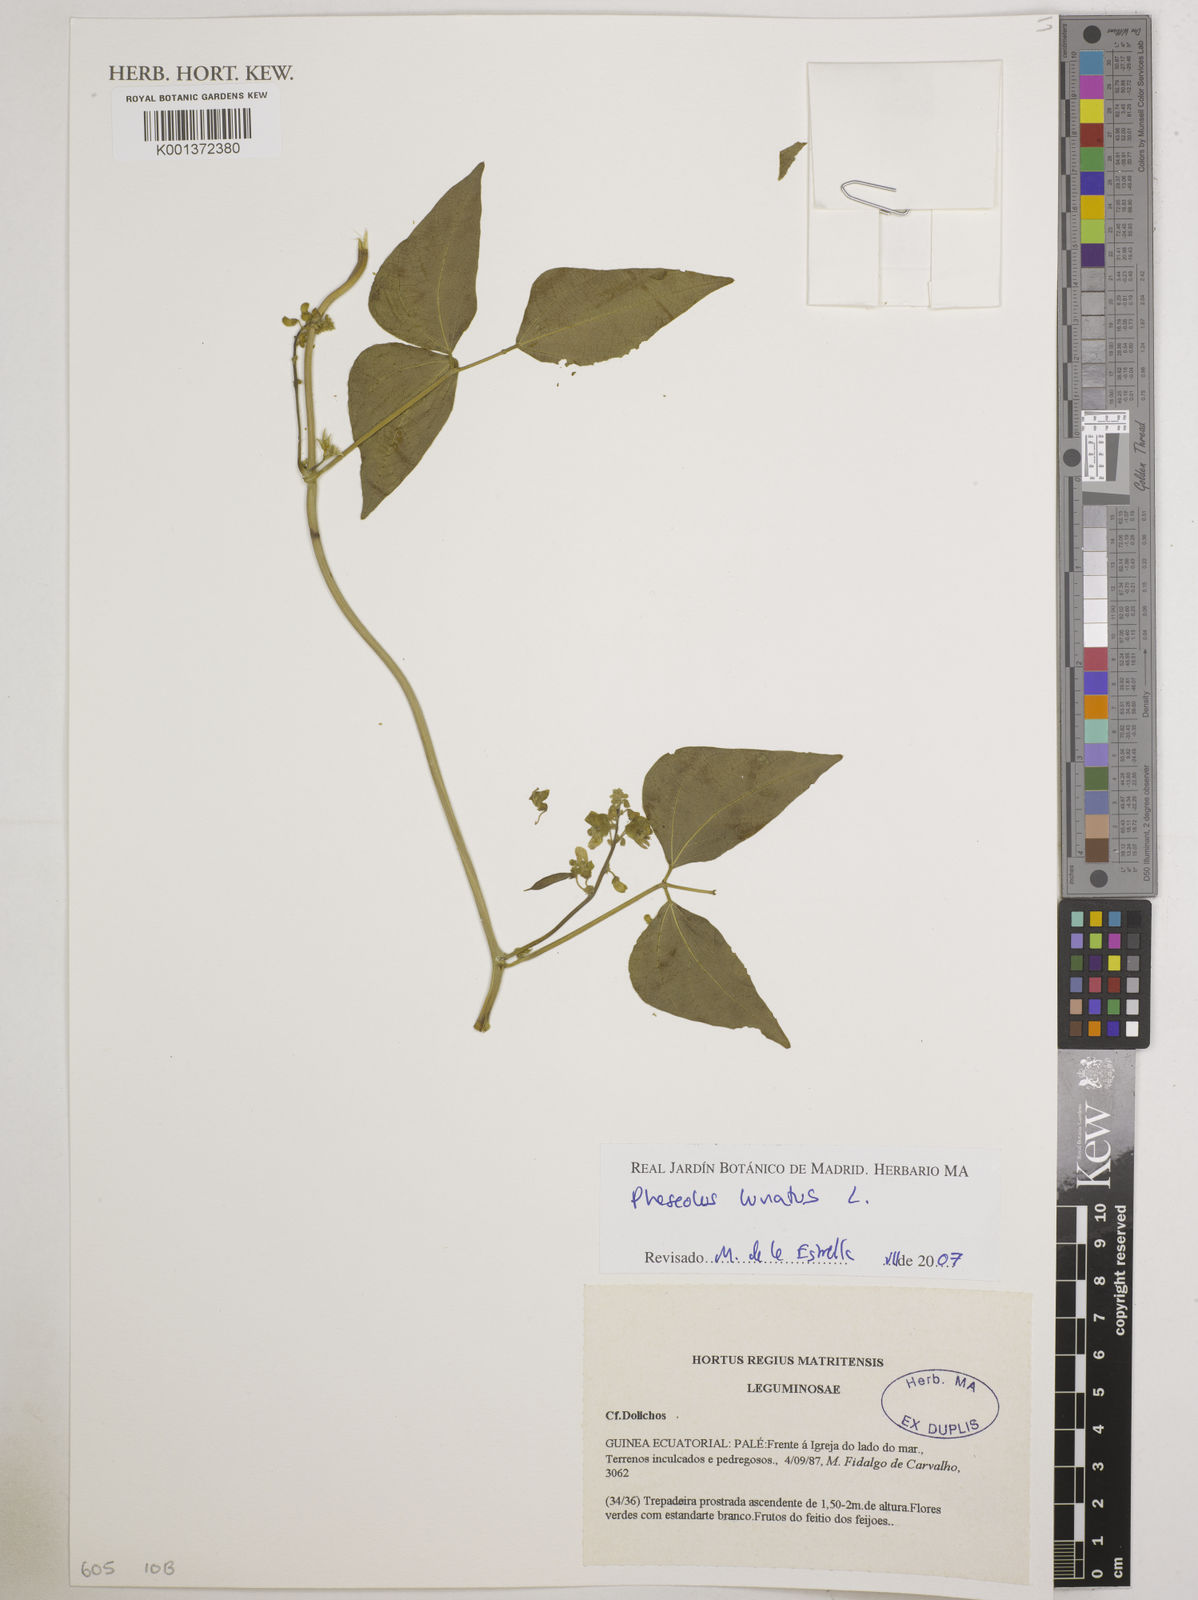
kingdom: Plantae
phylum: Tracheophyta
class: Magnoliopsida
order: Fabales
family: Fabaceae
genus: Phaseolus
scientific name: Phaseolus lunatus
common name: Sieva bean
